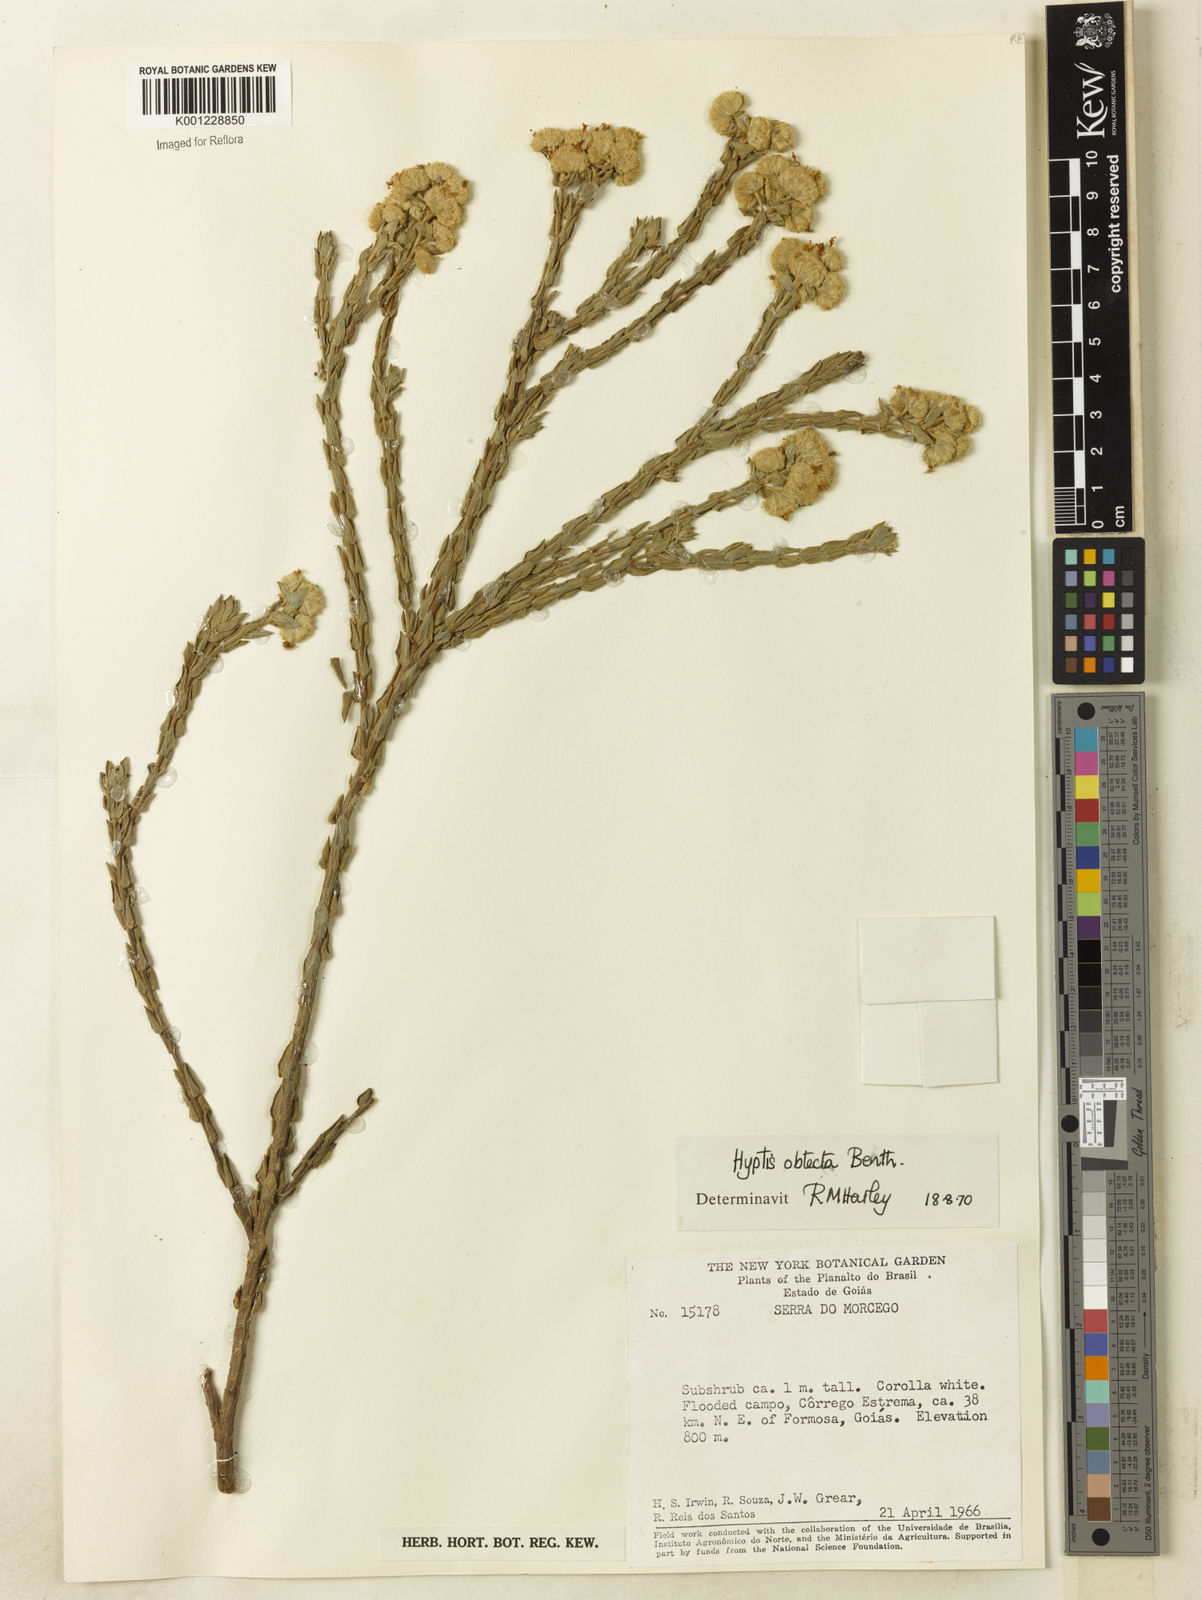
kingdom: Plantae
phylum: Tracheophyta
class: Magnoliopsida
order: Lamiales
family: Lamiaceae
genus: Hyptis
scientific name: Hyptis obtecta
